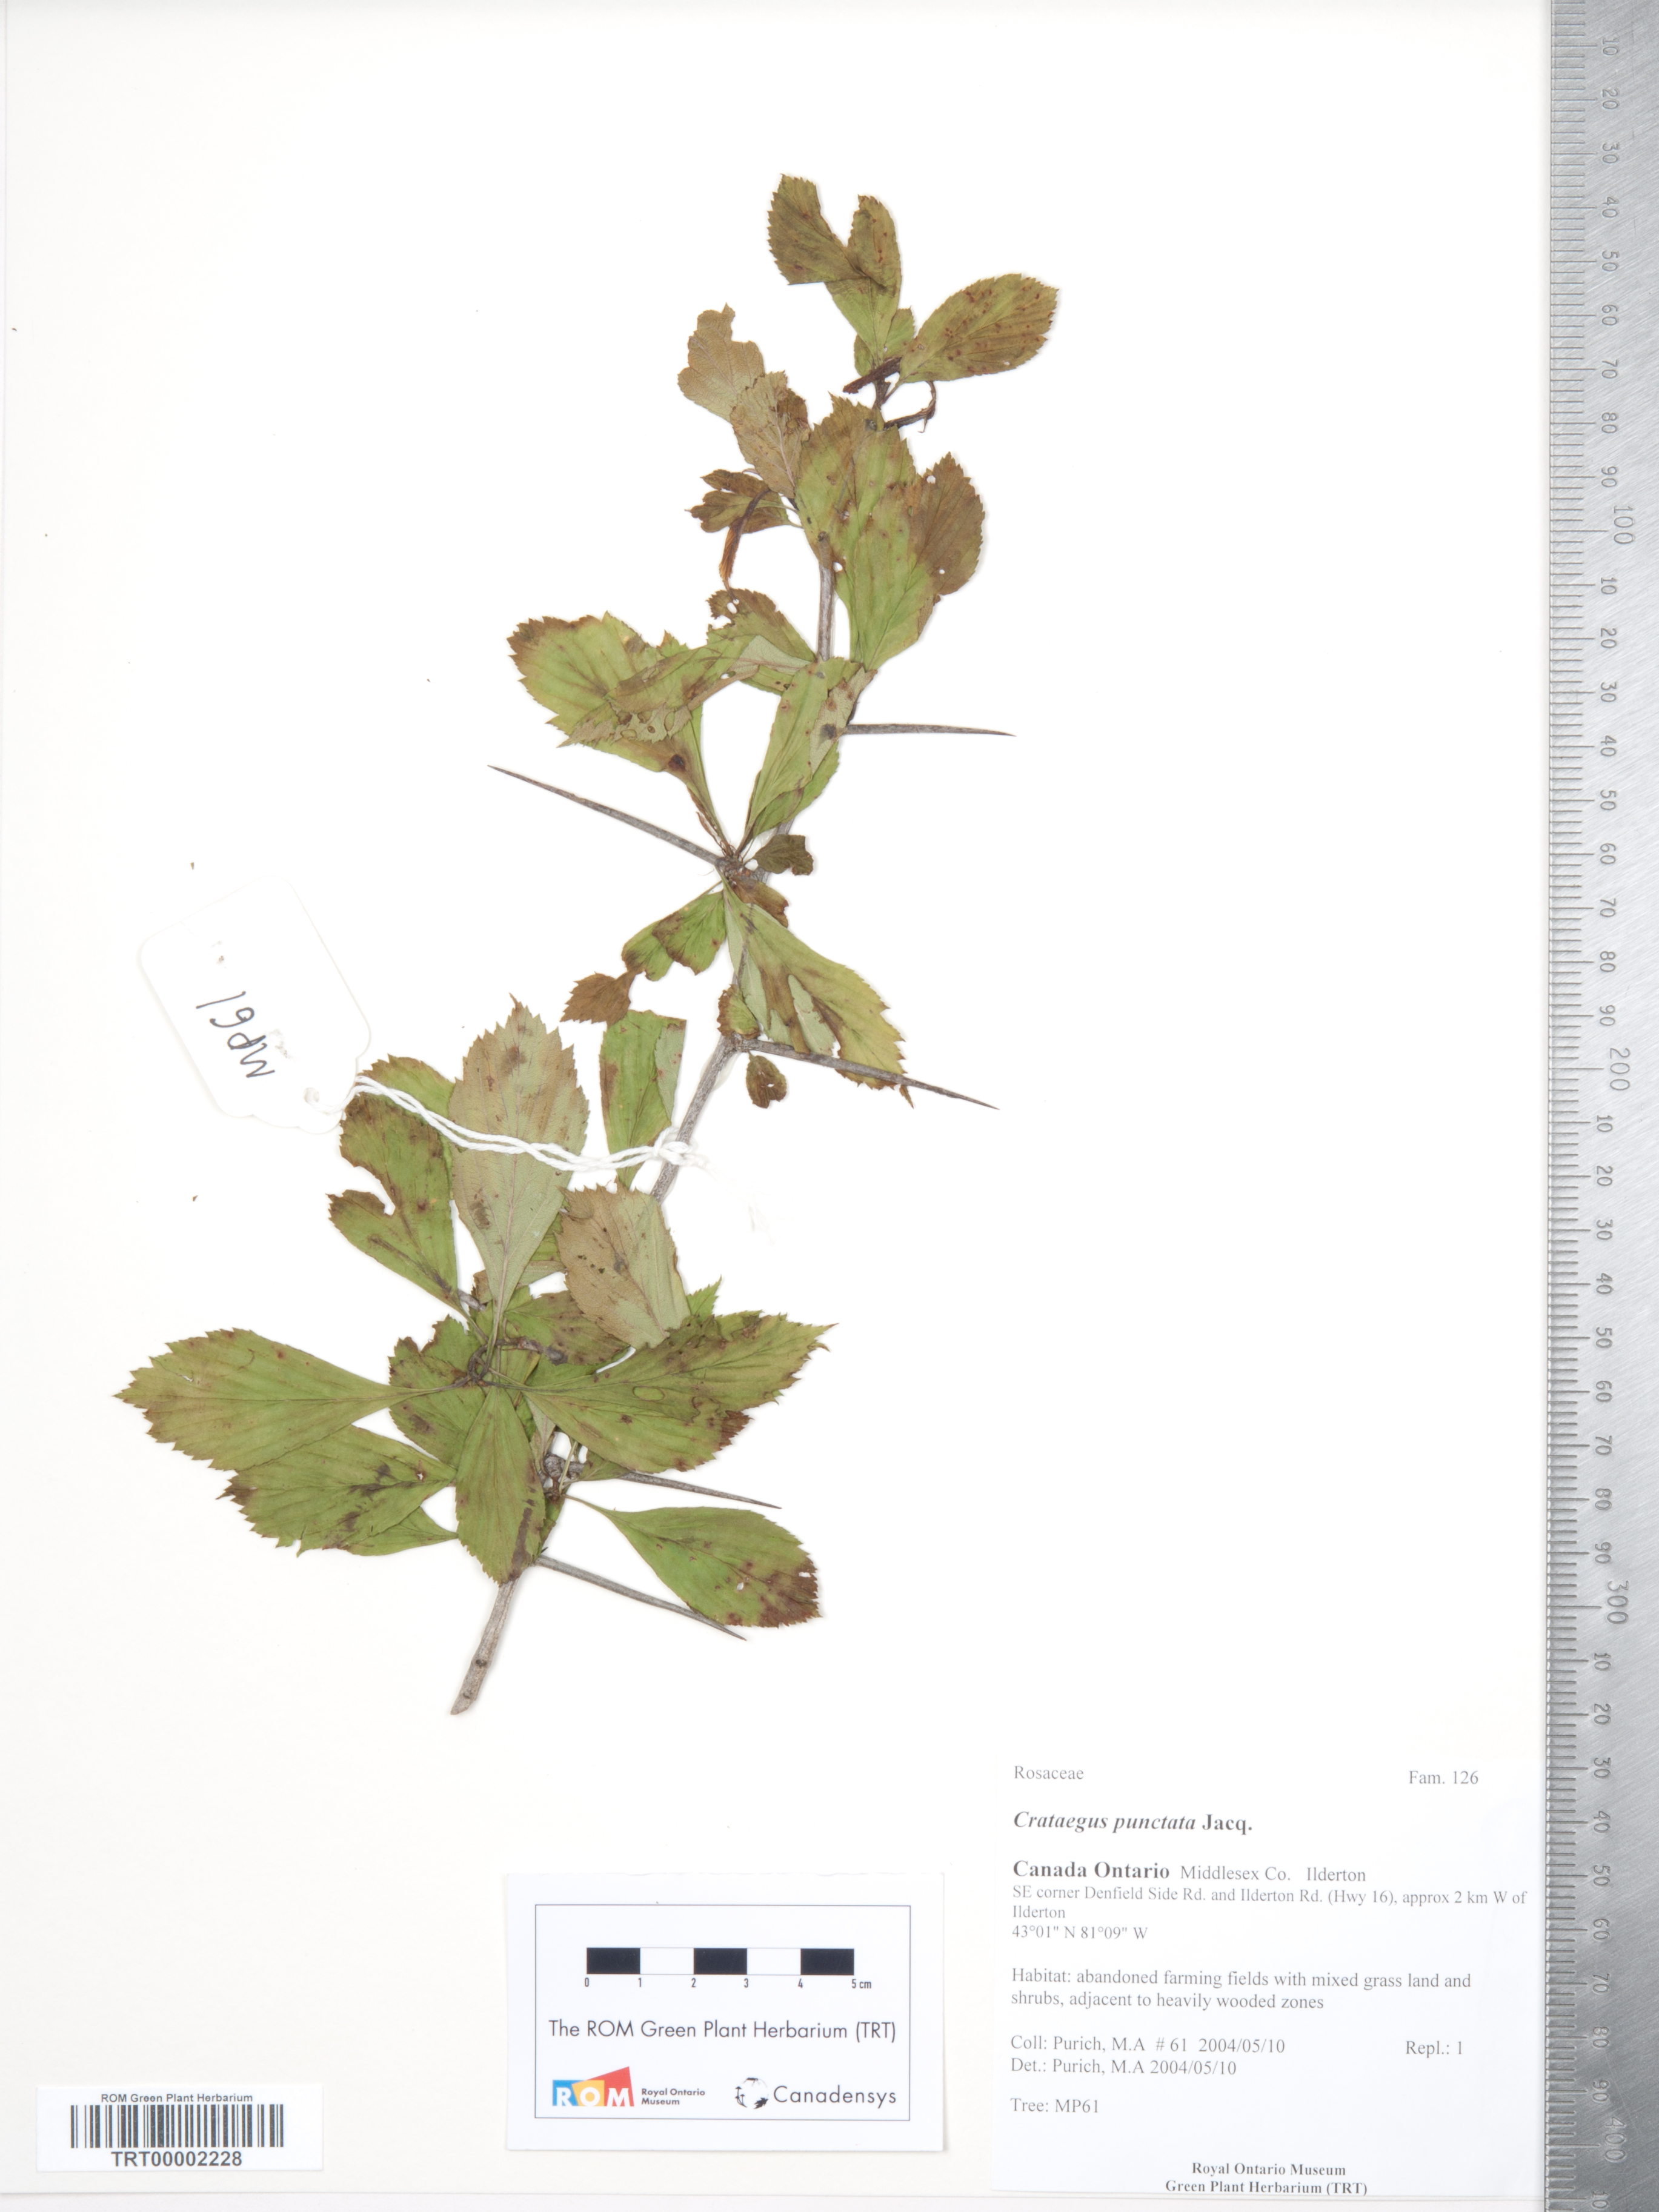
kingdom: Plantae
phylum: Tracheophyta
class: Magnoliopsida
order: Rosales
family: Rosaceae
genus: Crataegus
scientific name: Crataegus punctata
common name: Dotted hawthorn
